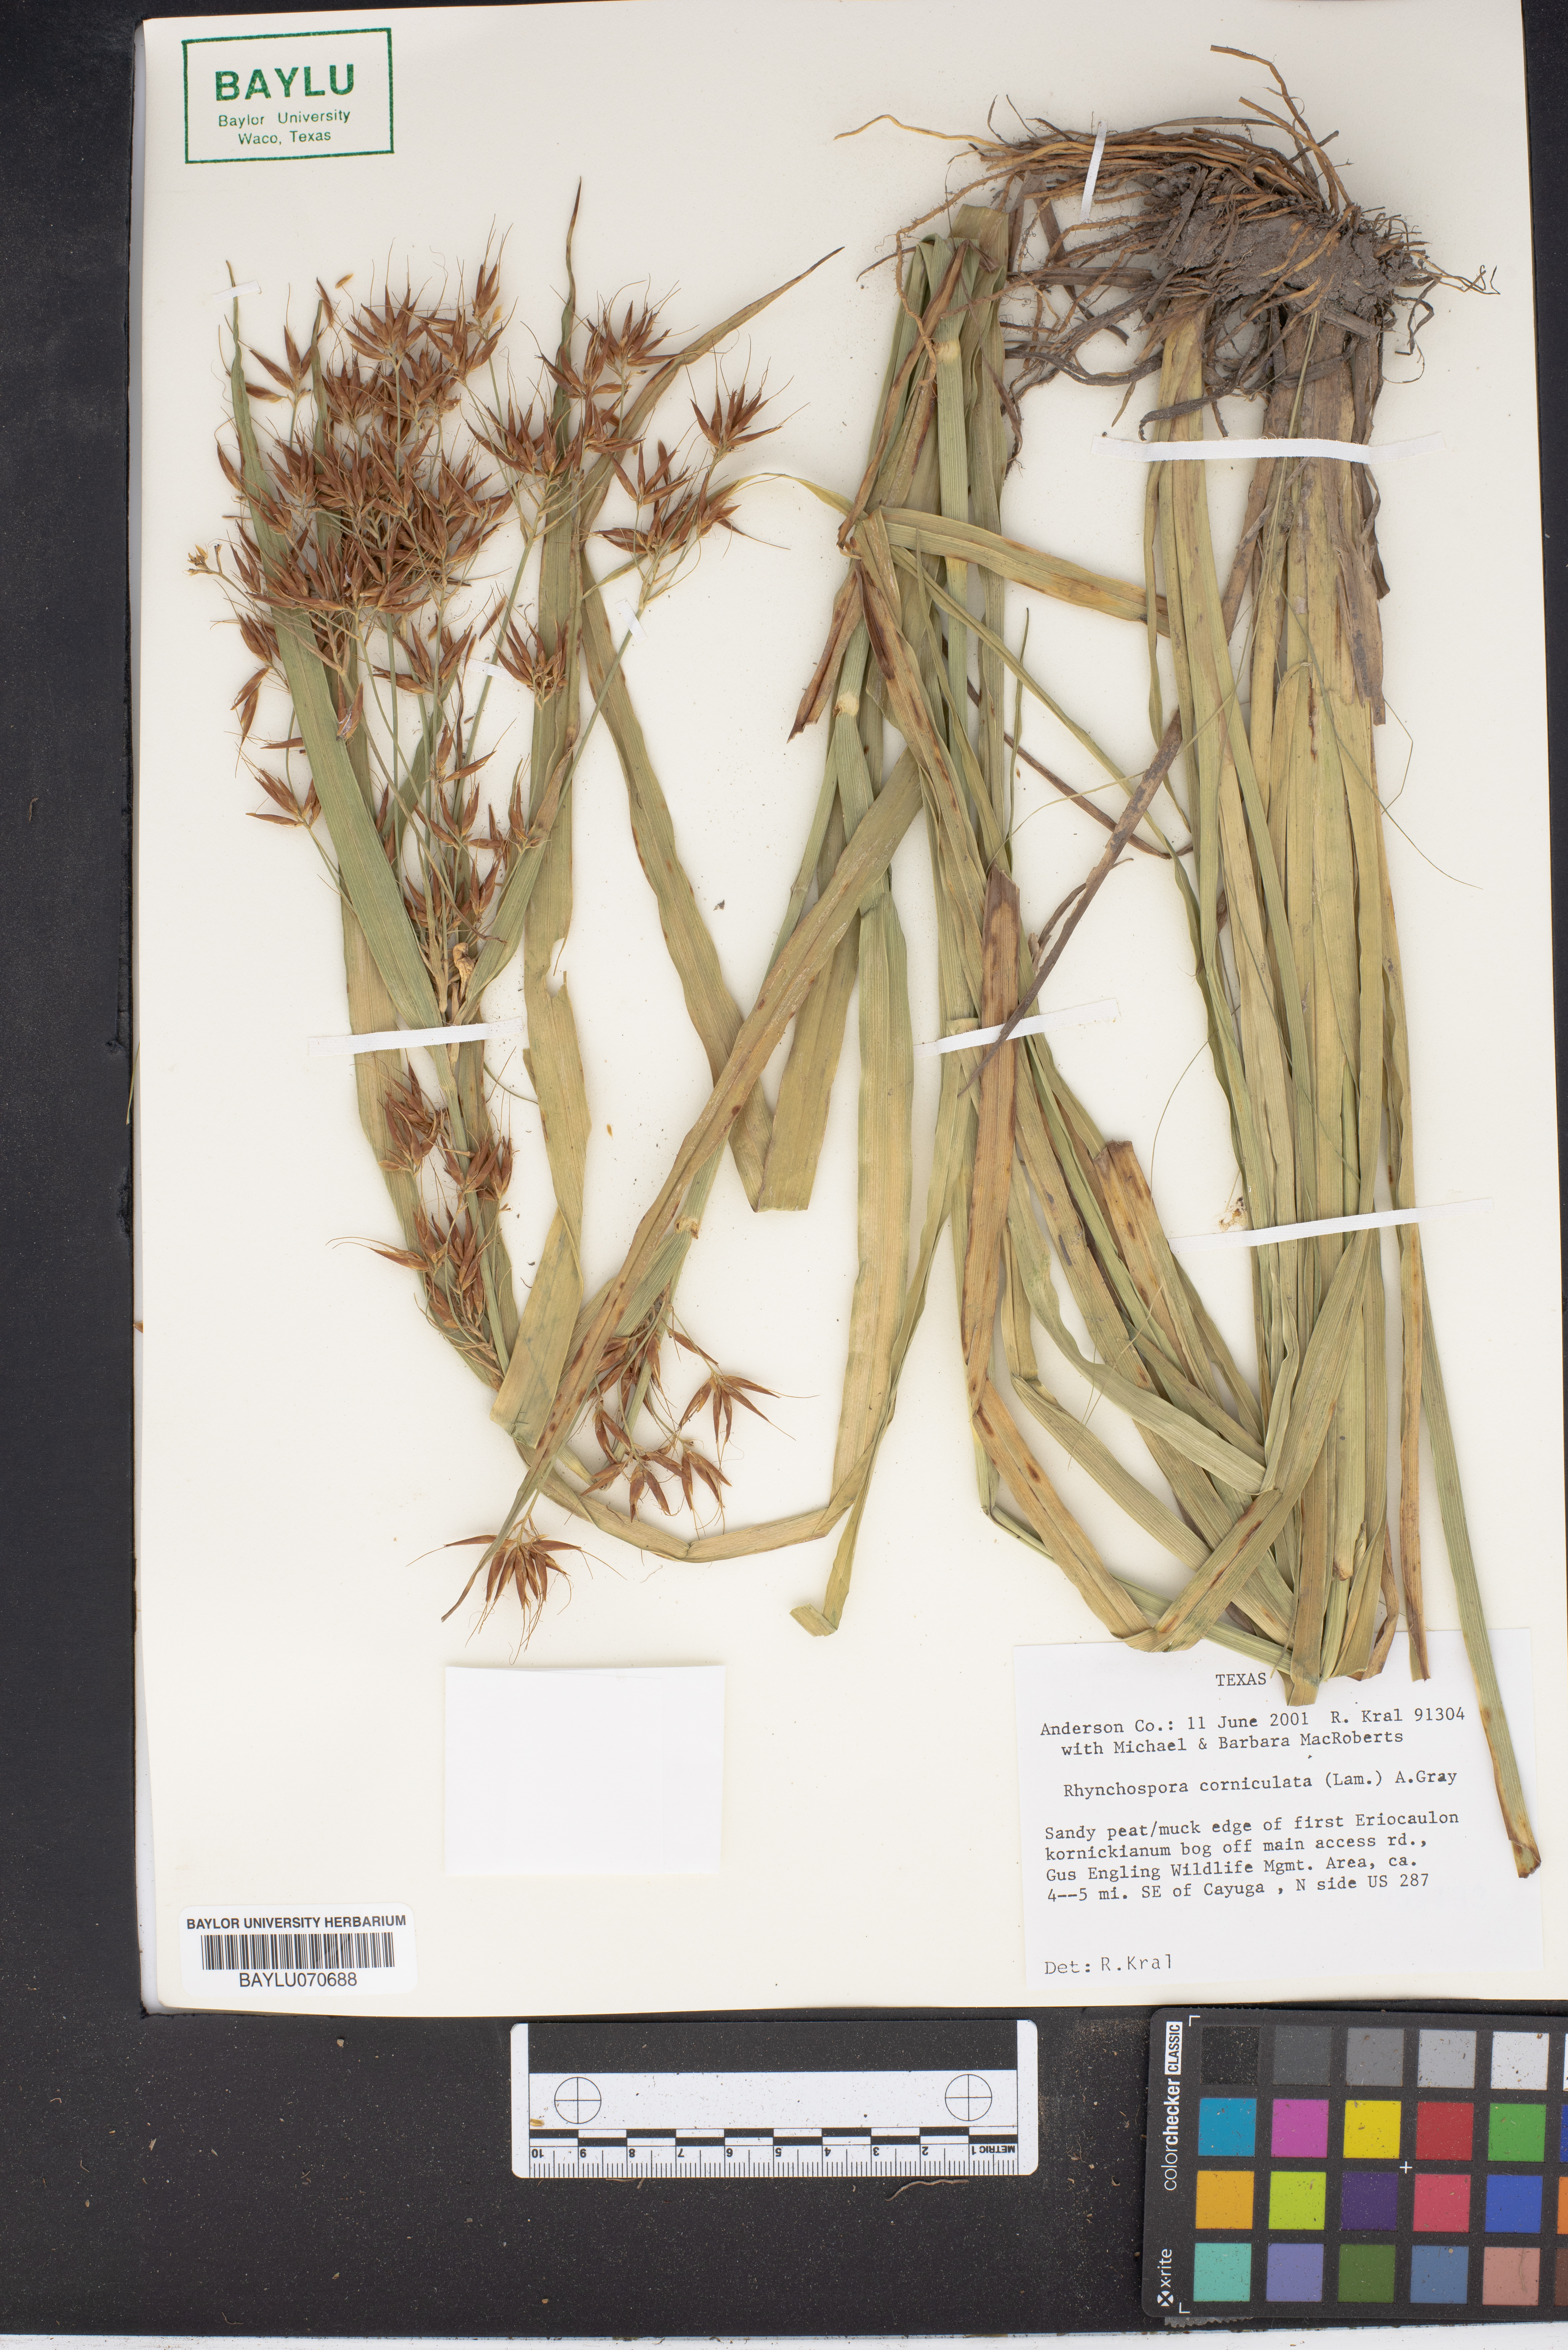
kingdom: Plantae
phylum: Tracheophyta
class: Liliopsida
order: Poales
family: Cyperaceae
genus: Rhynchospora
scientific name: Rhynchospora corniculata
